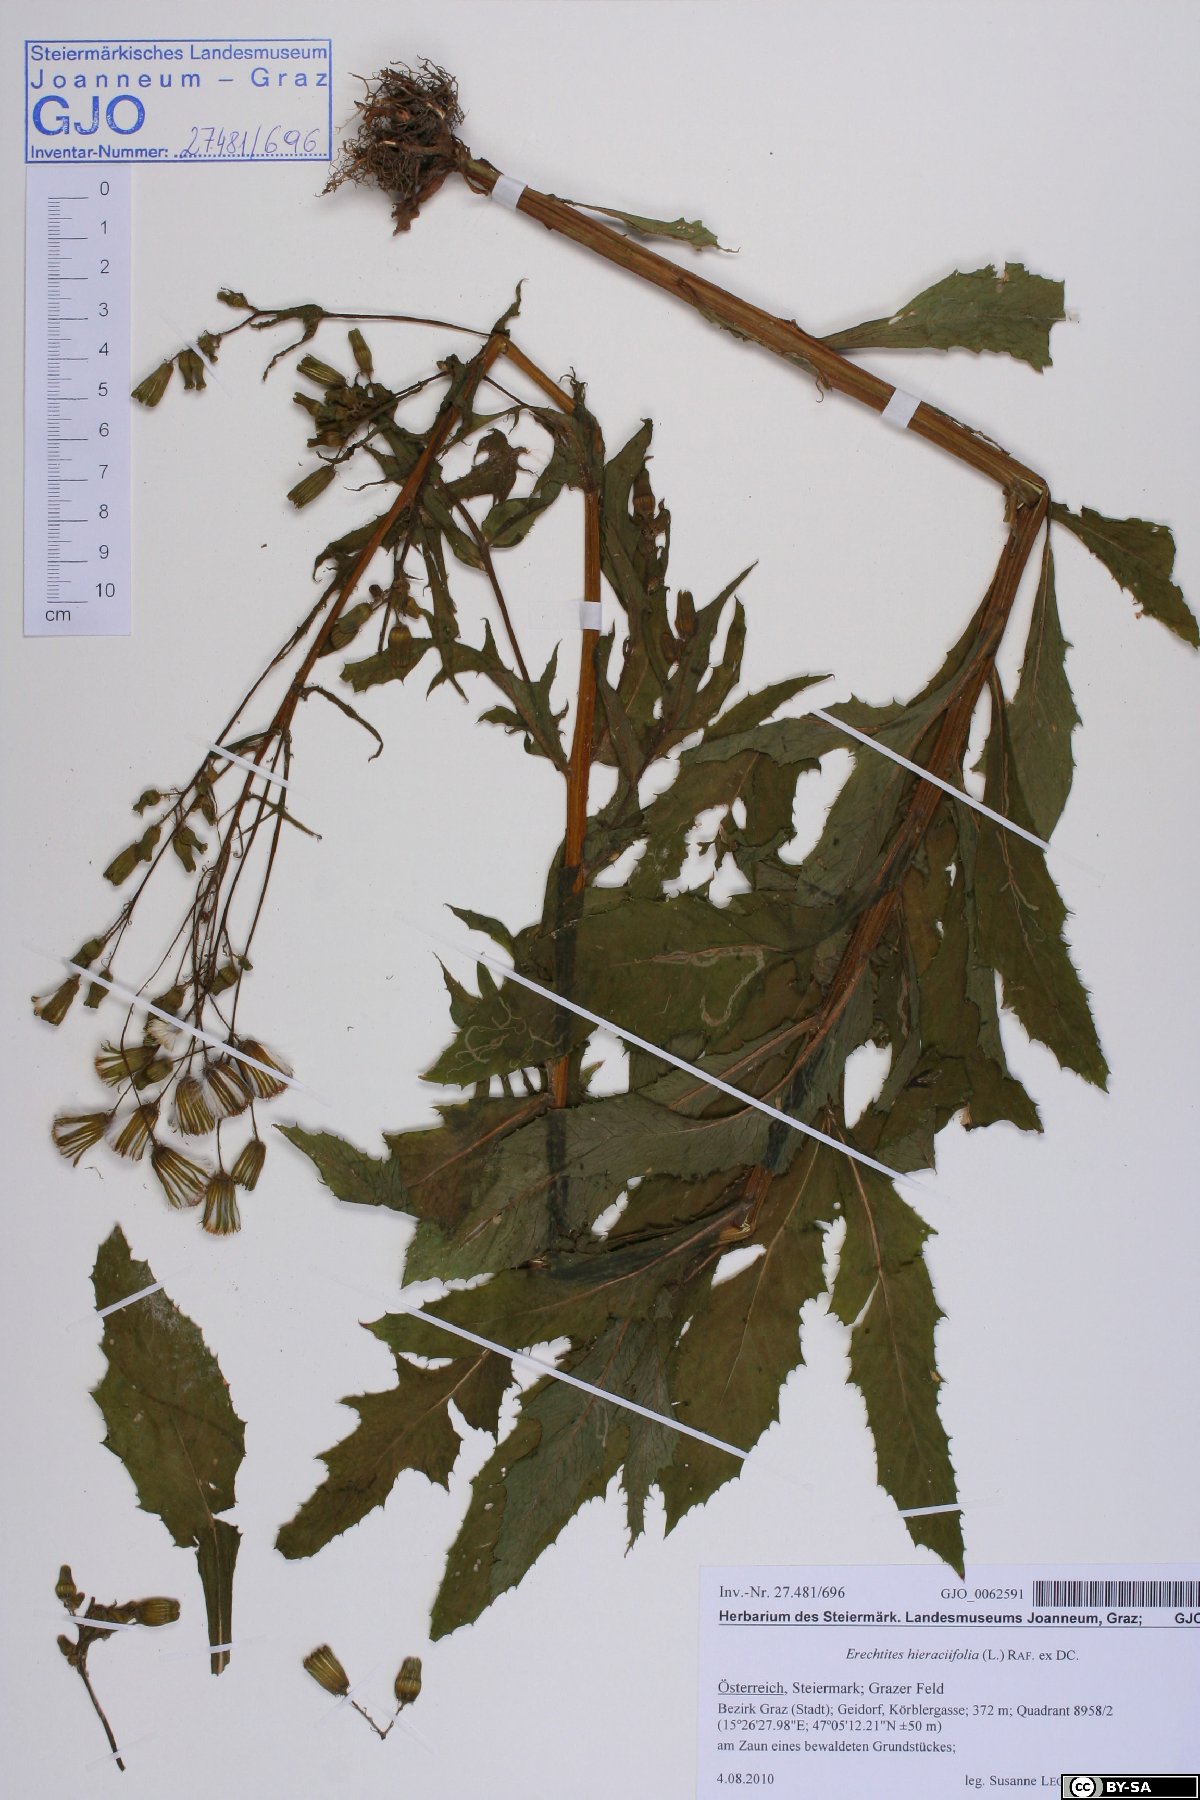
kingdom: Plantae
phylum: Tracheophyta
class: Magnoliopsida
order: Asterales
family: Asteraceae
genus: Erechtites
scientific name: Erechtites hieraciifolius
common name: American burnweed
